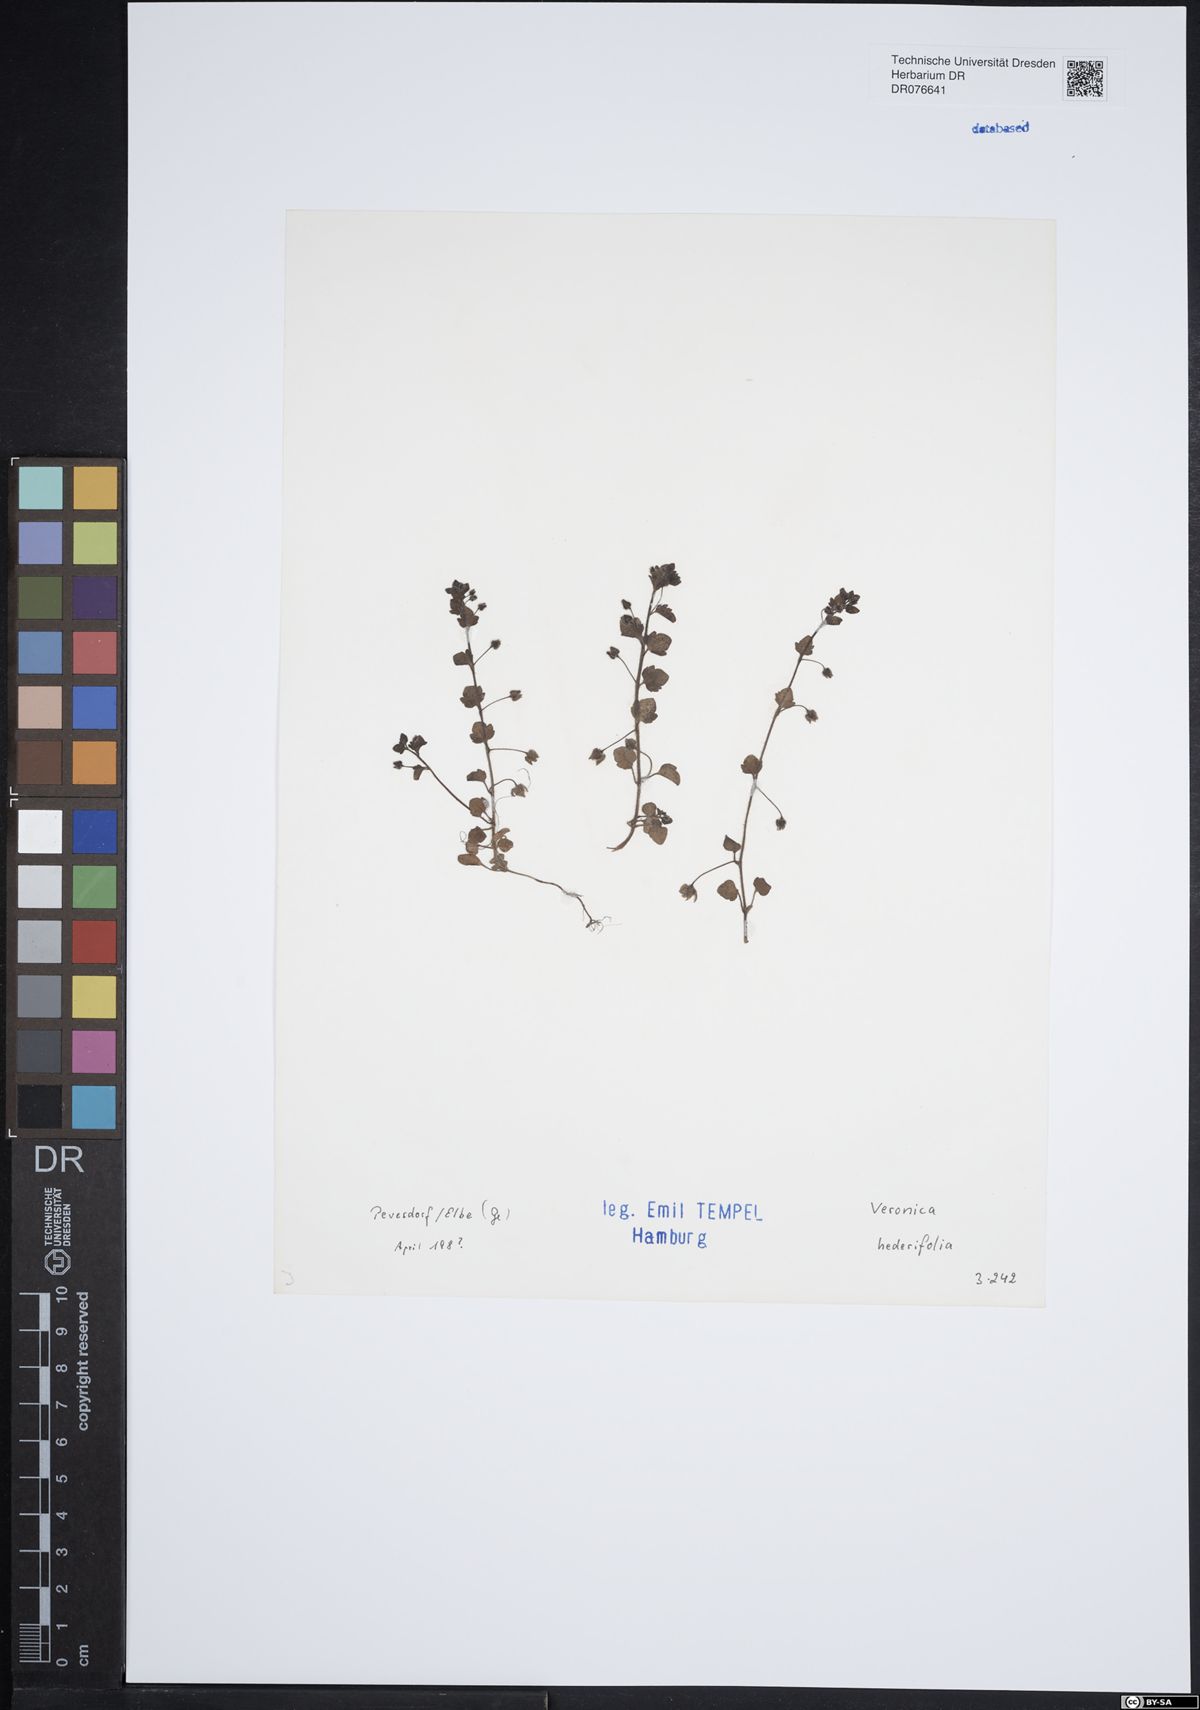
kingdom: Plantae
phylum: Tracheophyta
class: Magnoliopsida
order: Lamiales
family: Plantaginaceae
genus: Veronica
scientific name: Veronica hederifolia
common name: Ivy-leaved speedwell
